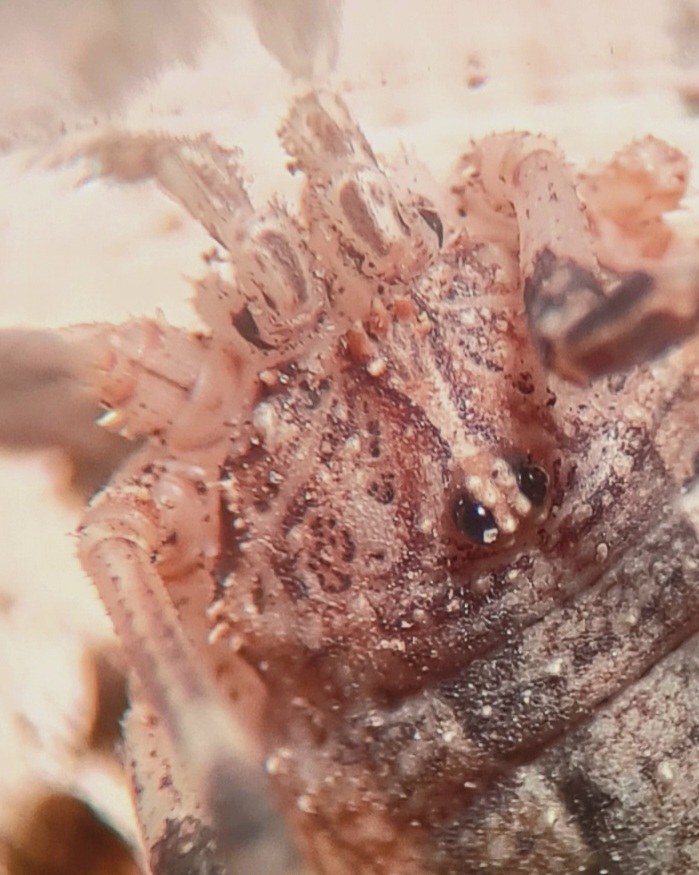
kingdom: Animalia
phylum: Arthropoda
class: Arachnida
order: Opiliones
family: Phalangiidae
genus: Odiellus
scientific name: Odiellus spinosus
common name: Kæmpemejer
